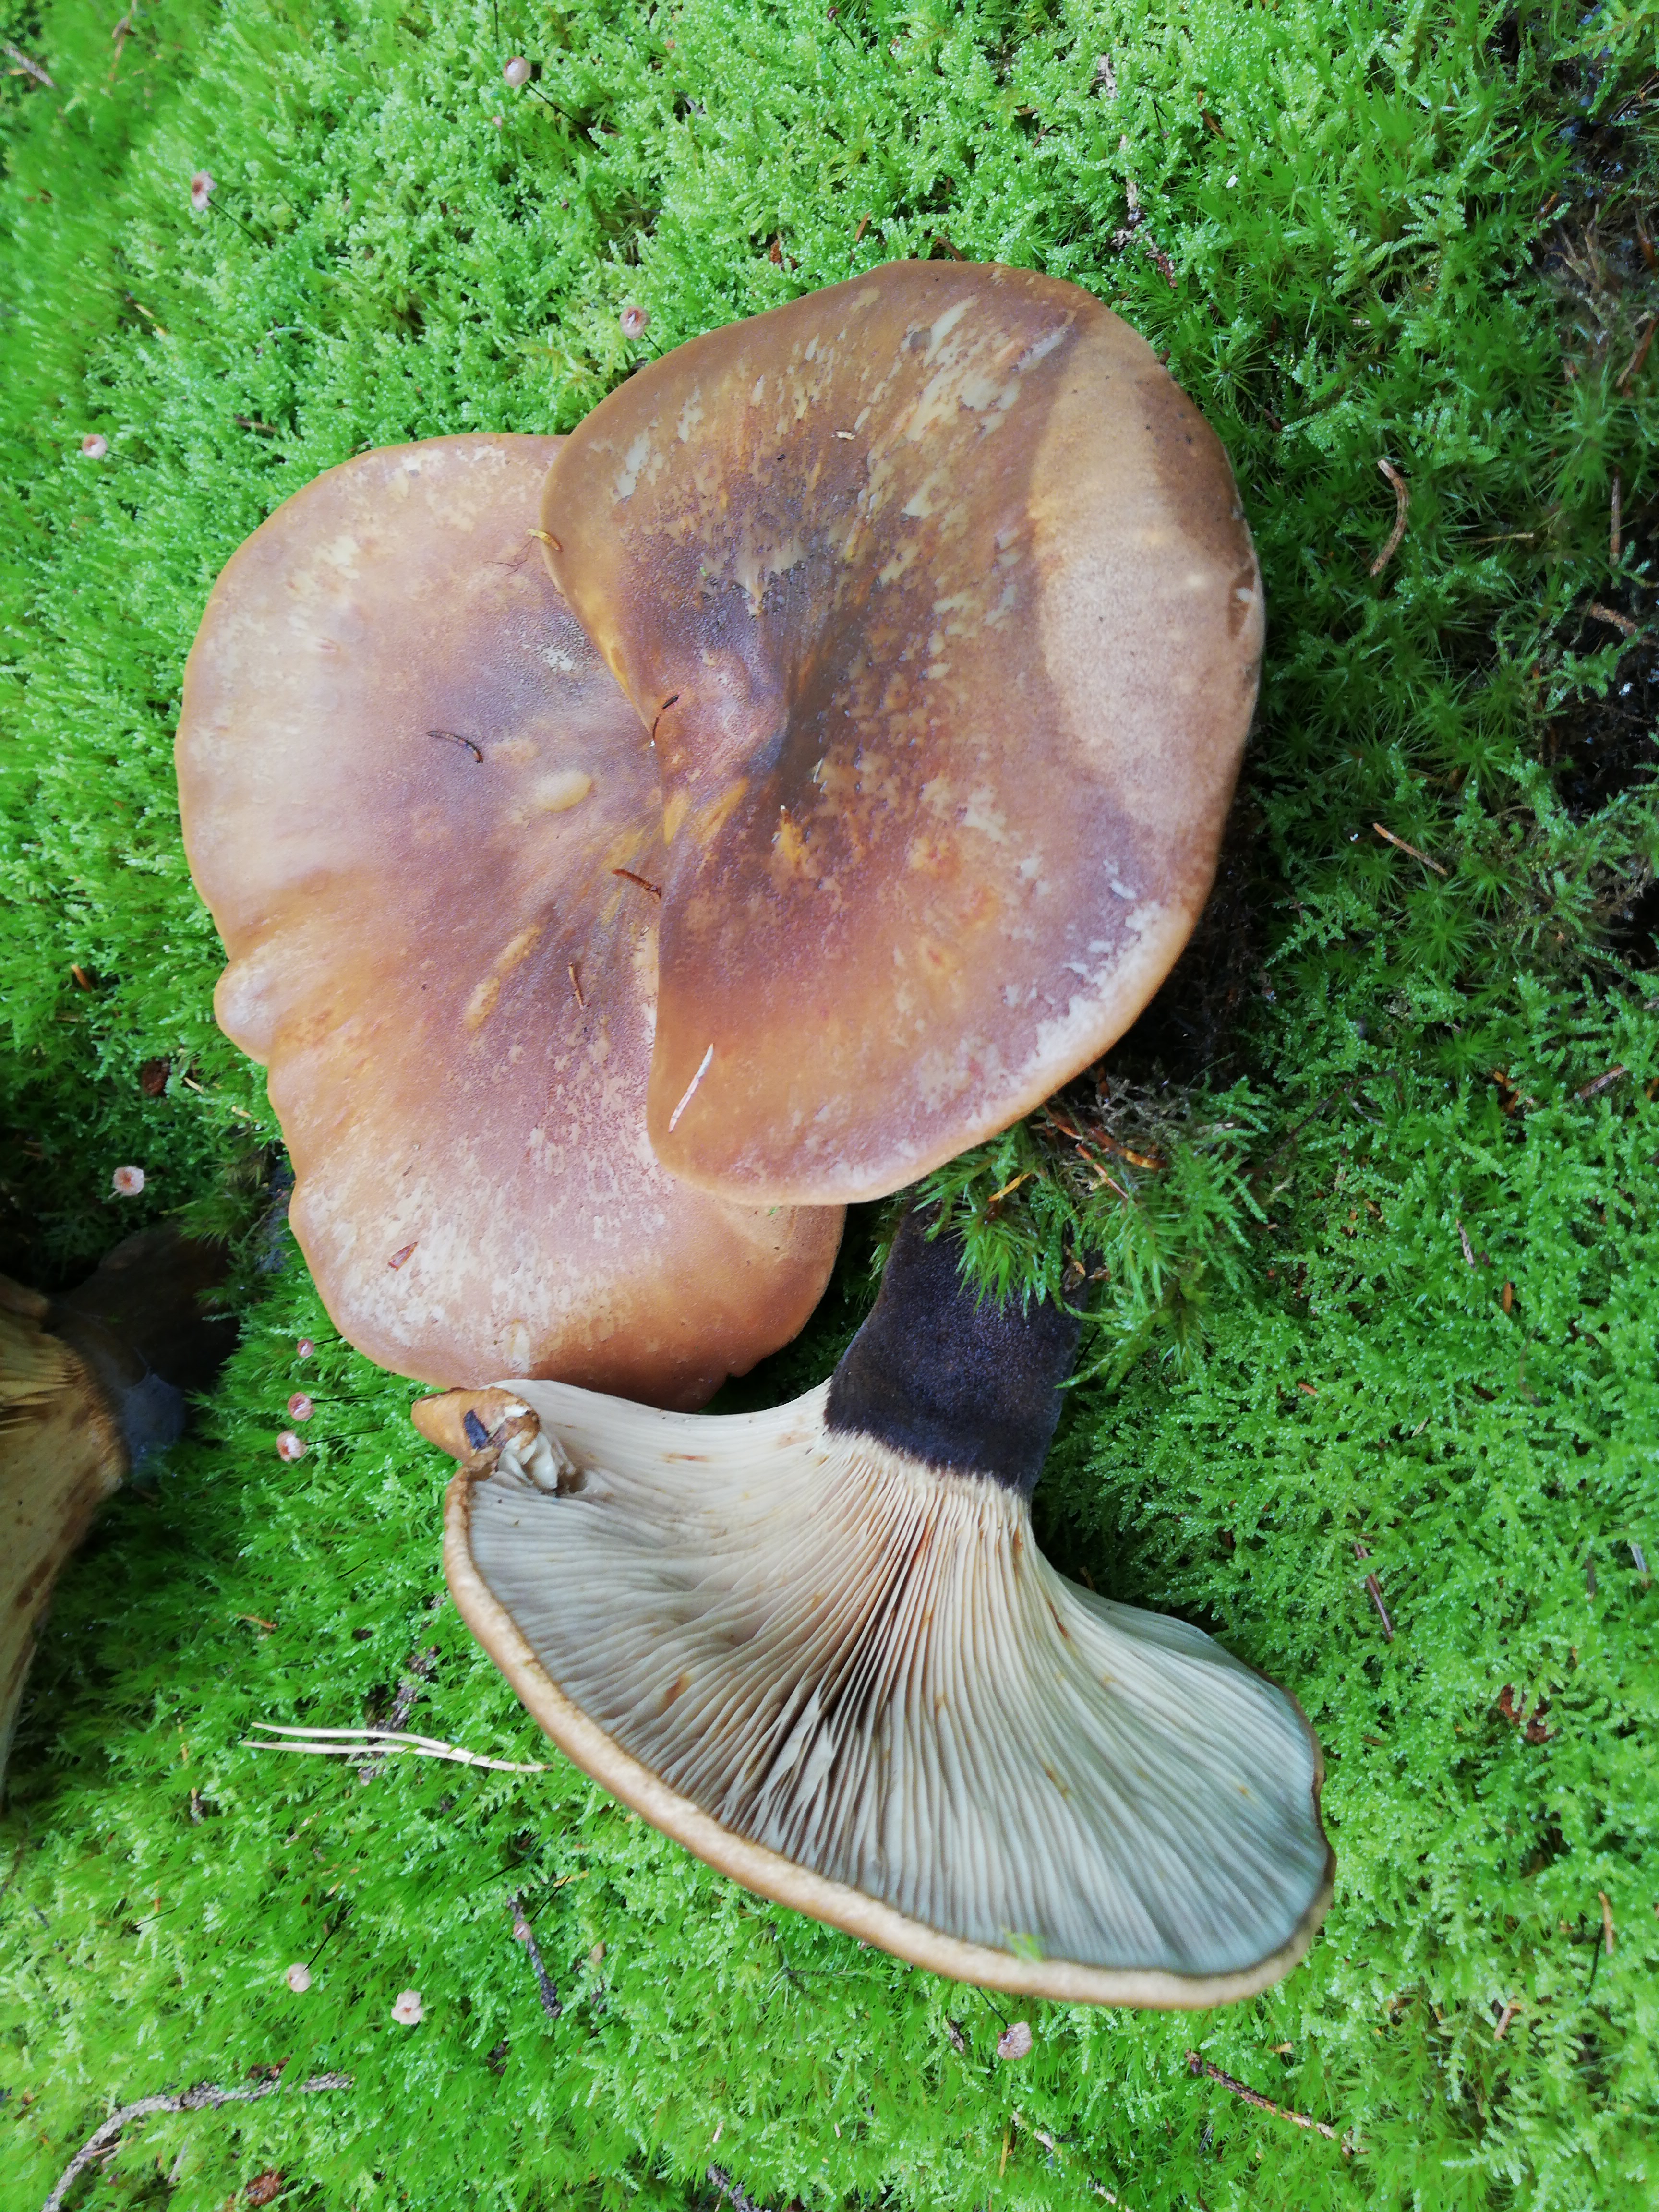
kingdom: Fungi
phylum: Basidiomycota
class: Agaricomycetes
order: Boletales
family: Tapinellaceae
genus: Tapinella
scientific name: Tapinella atrotomentosa
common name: sortfiltet viftesvamp
